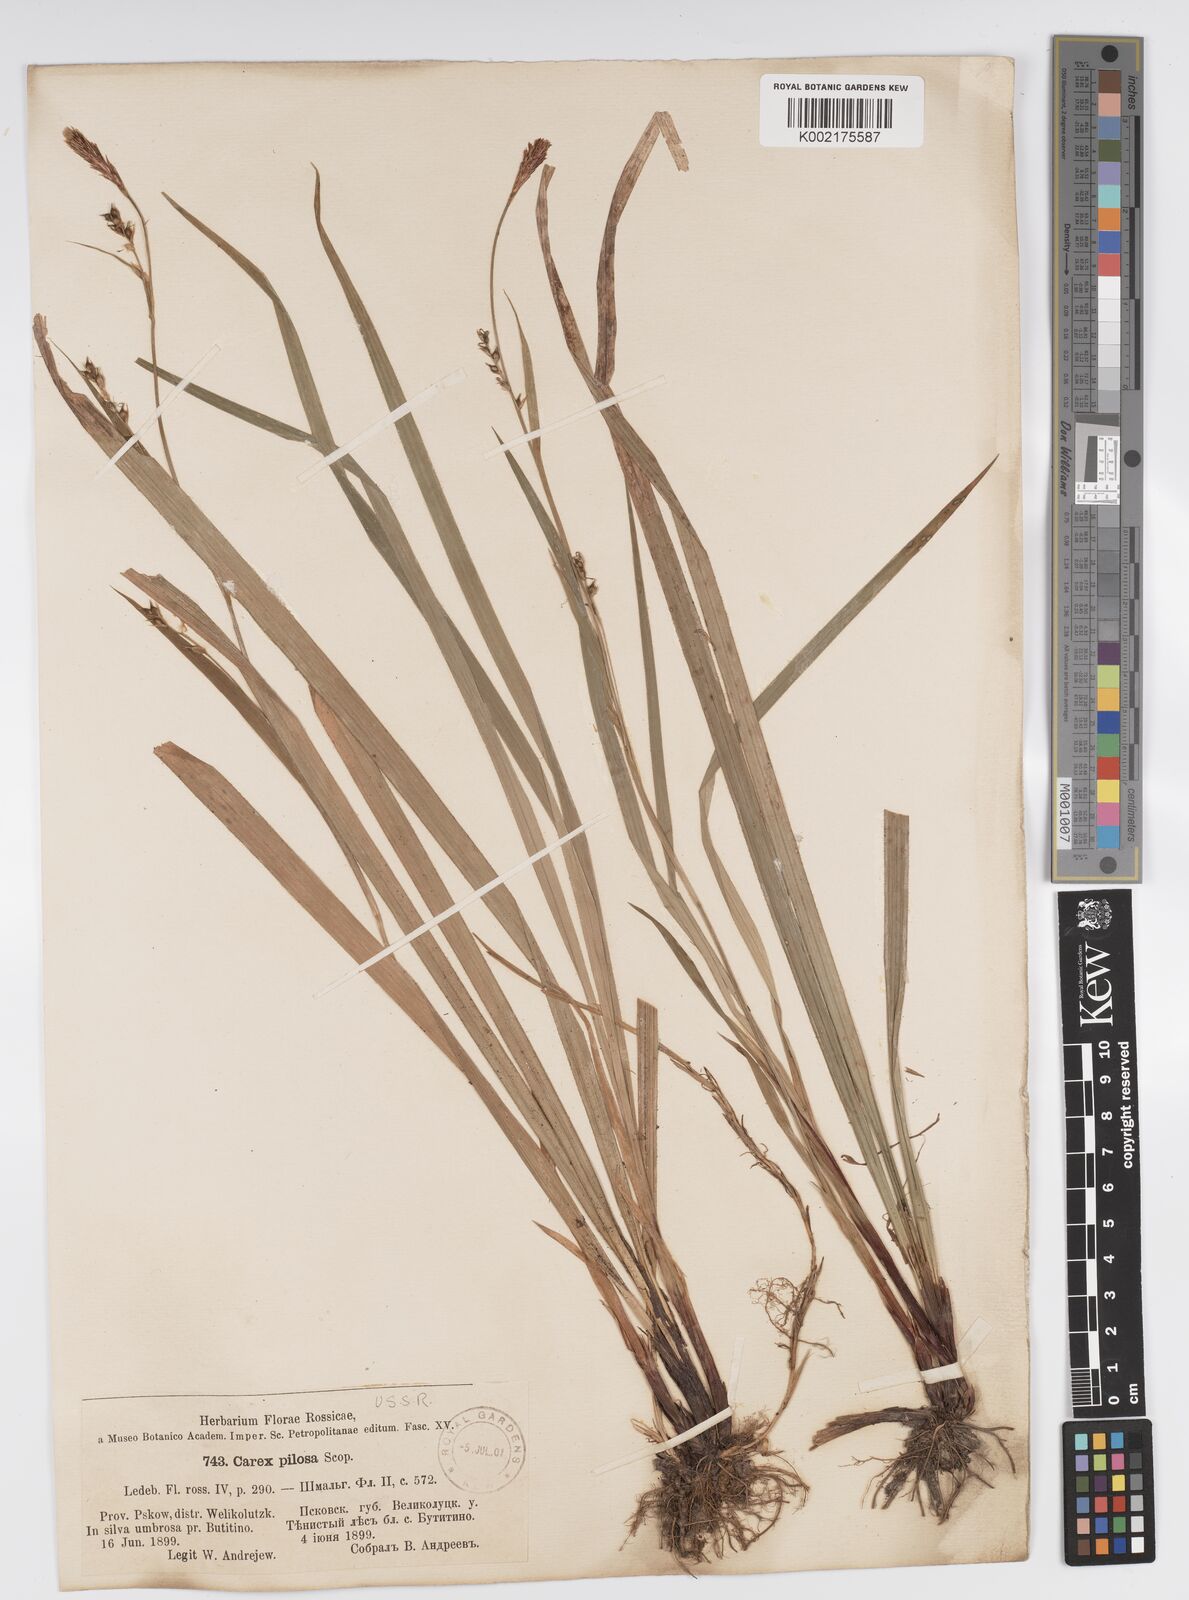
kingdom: Plantae
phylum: Tracheophyta
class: Liliopsida
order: Poales
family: Cyperaceae
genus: Carex
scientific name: Carex pilosa
